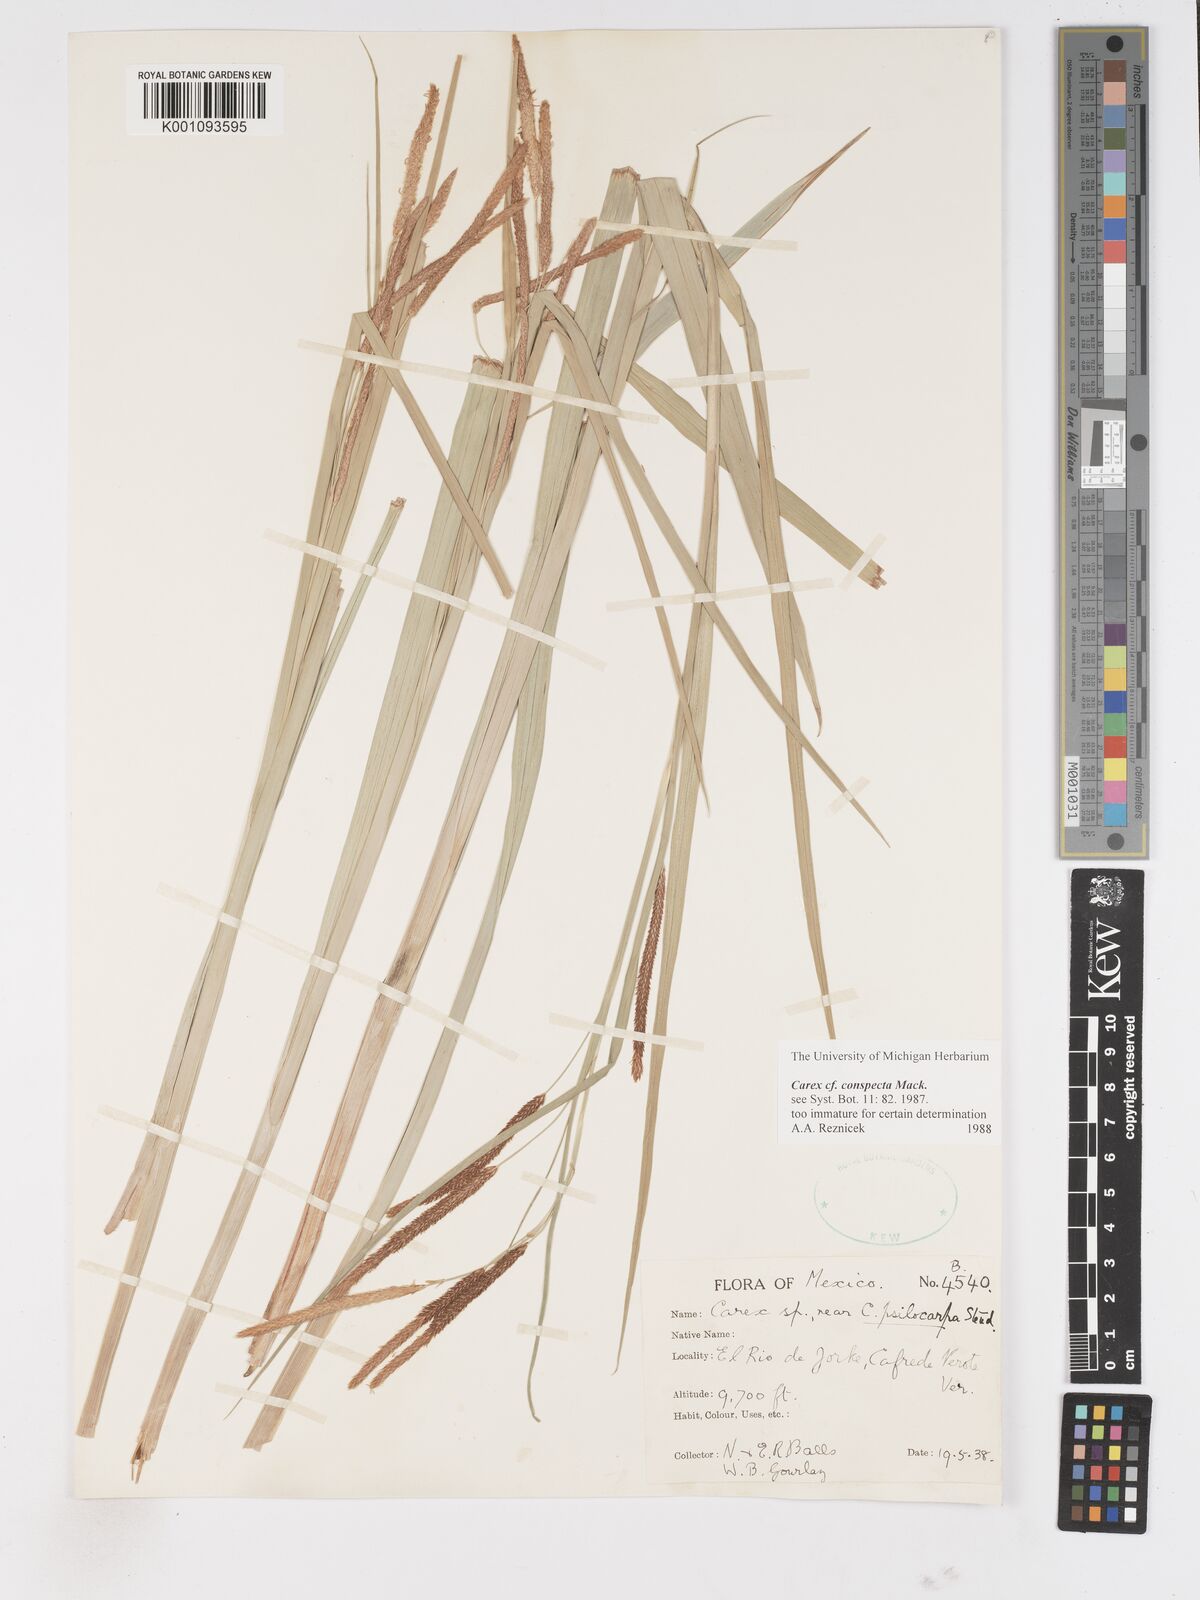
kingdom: Plantae
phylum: Tracheophyta
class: Liliopsida
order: Poales
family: Cyperaceae
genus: Carex
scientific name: Carex conspecta
